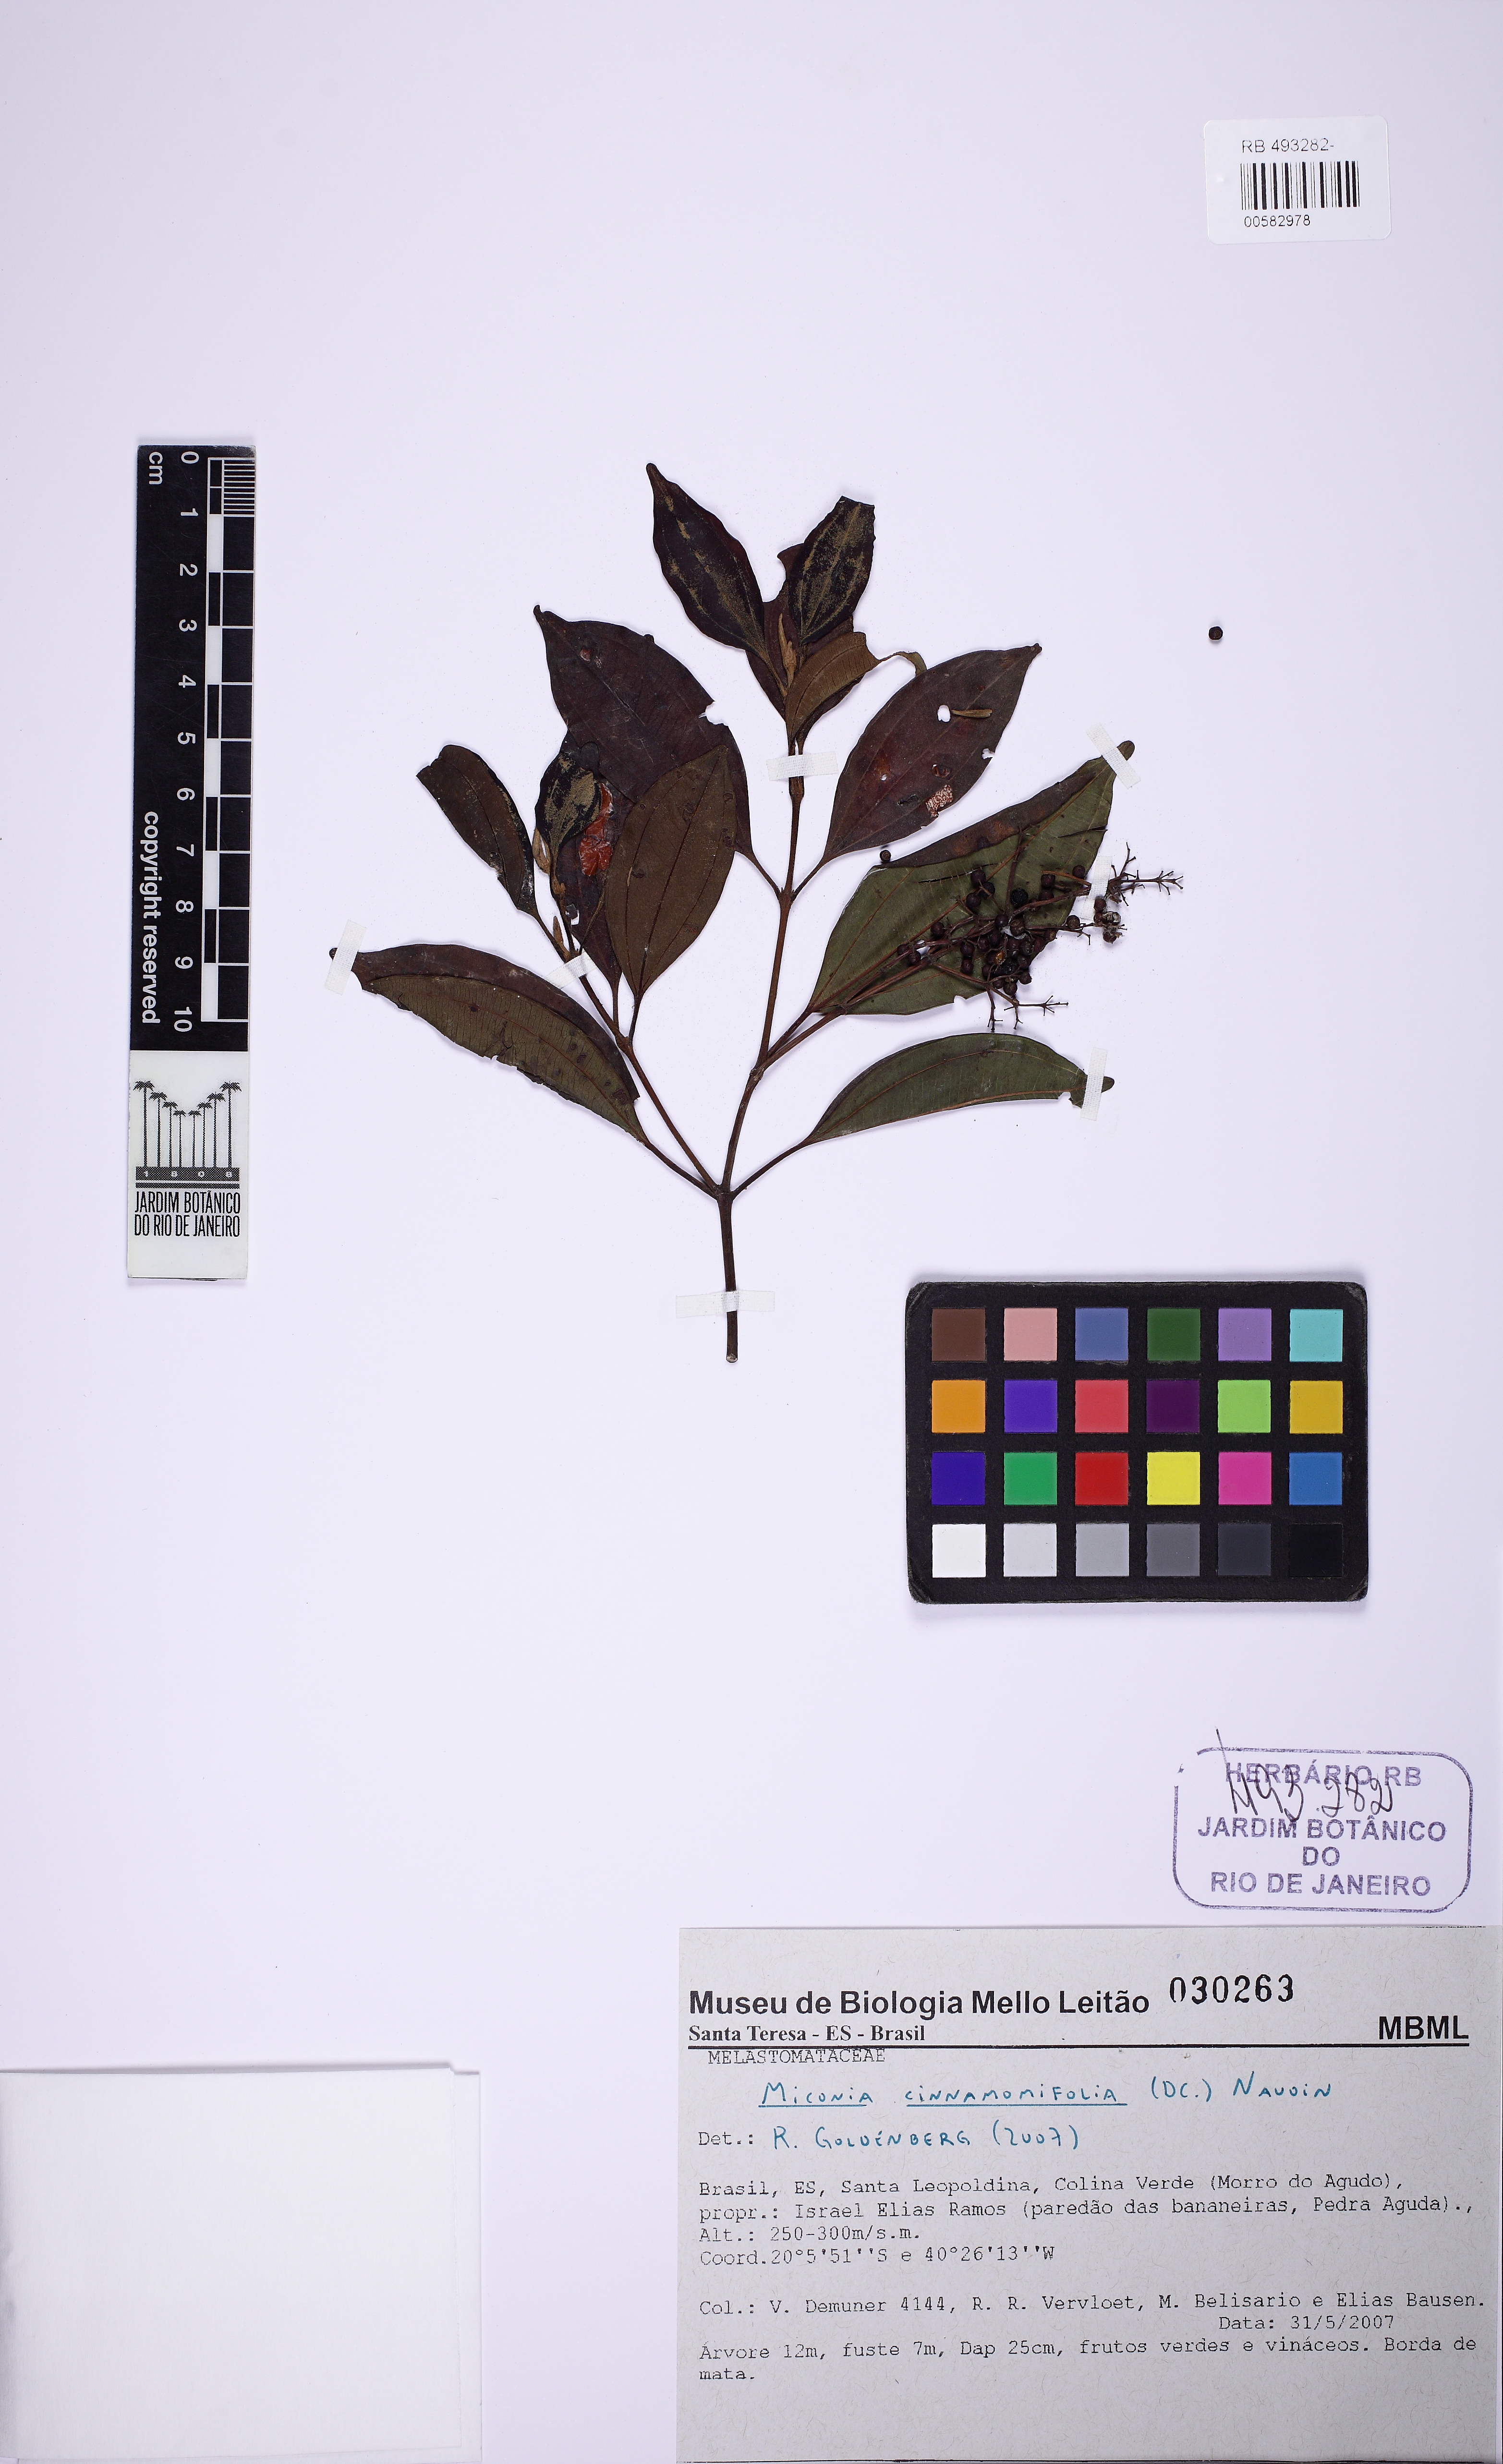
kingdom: Plantae
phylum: Tracheophyta
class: Magnoliopsida
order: Myrtales
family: Melastomataceae
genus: Miconia
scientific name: Miconia cinnamomifolia
